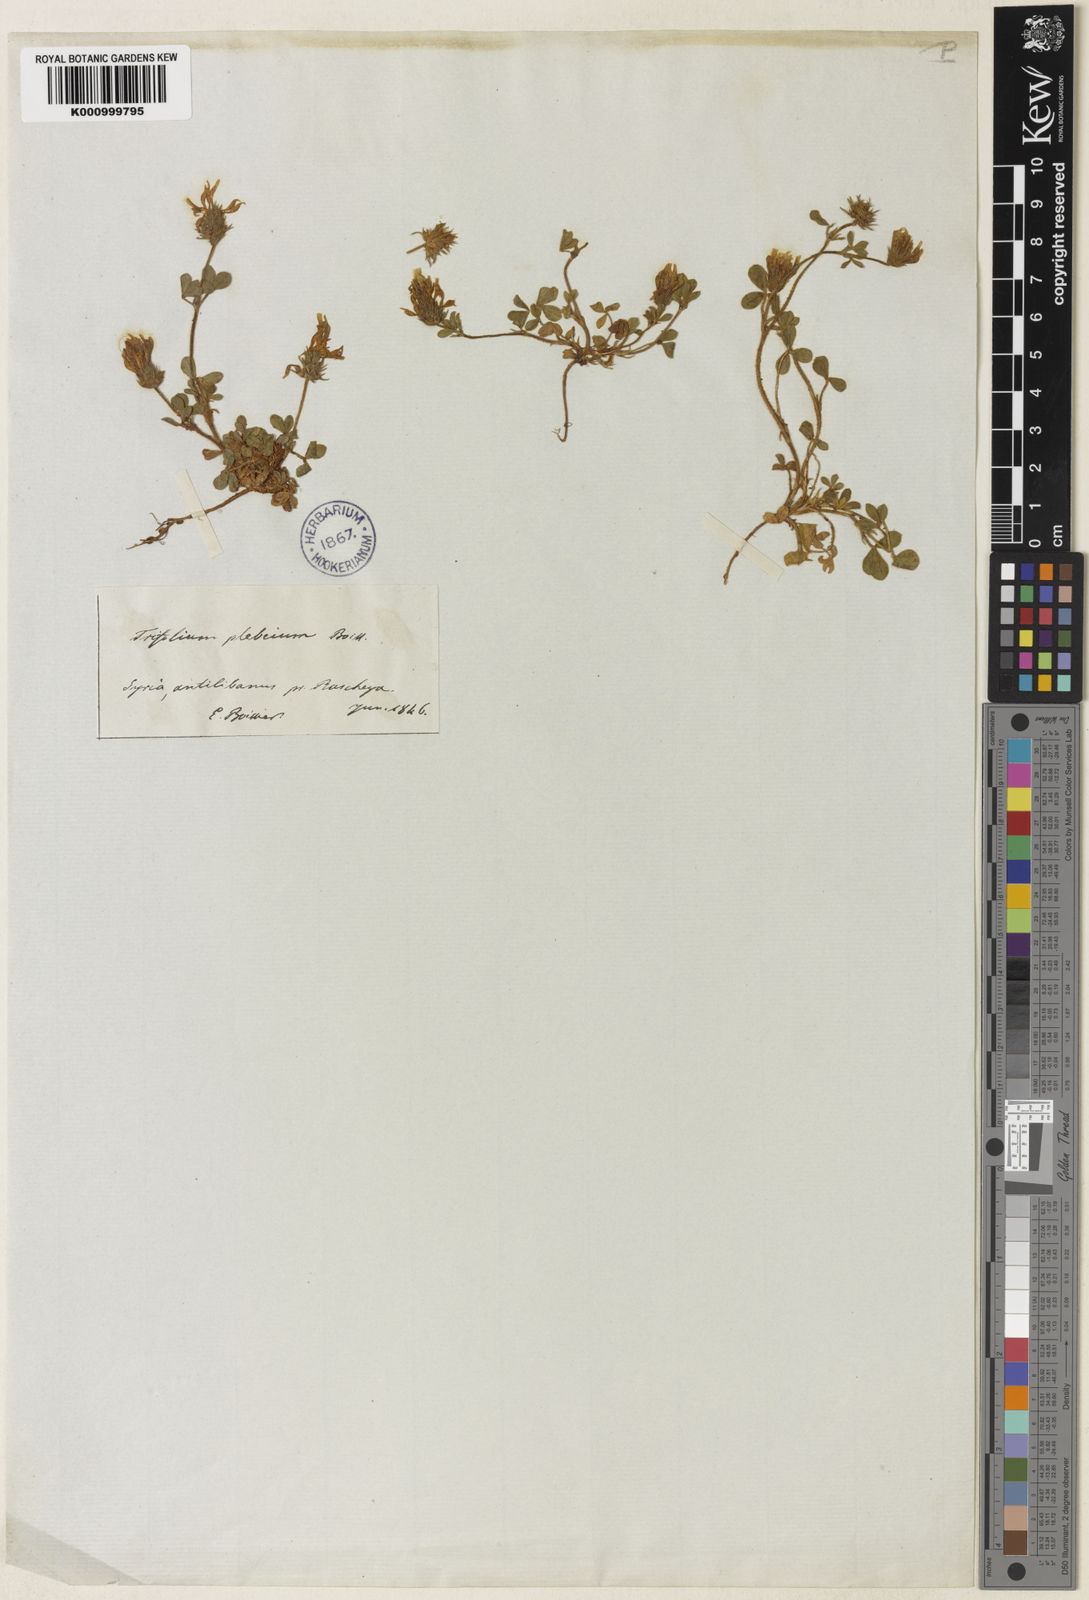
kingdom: Plantae
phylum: Tracheophyta
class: Magnoliopsida
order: Fabales
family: Fabaceae
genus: Trifolium
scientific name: Trifolium plebeium
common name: Common clover
